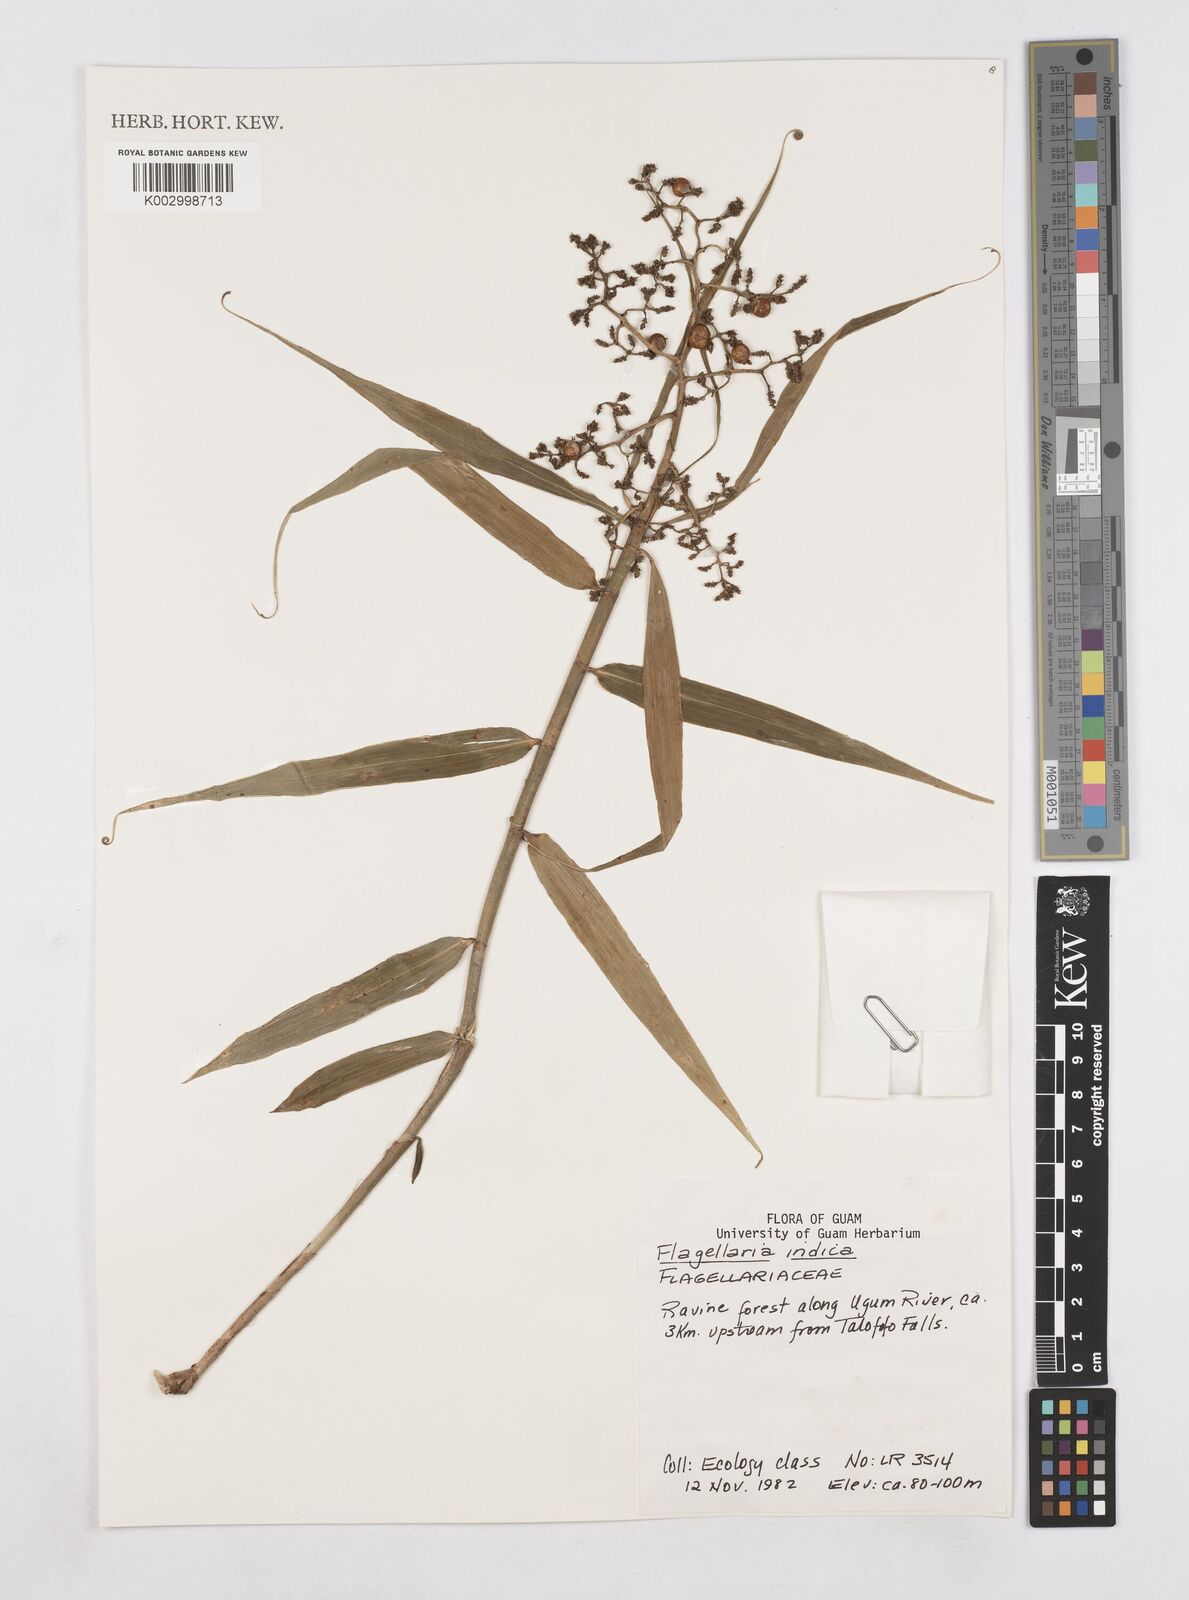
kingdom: Plantae
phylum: Tracheophyta
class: Liliopsida
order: Poales
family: Flagellariaceae
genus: Flagellaria
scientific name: Flagellaria indica
